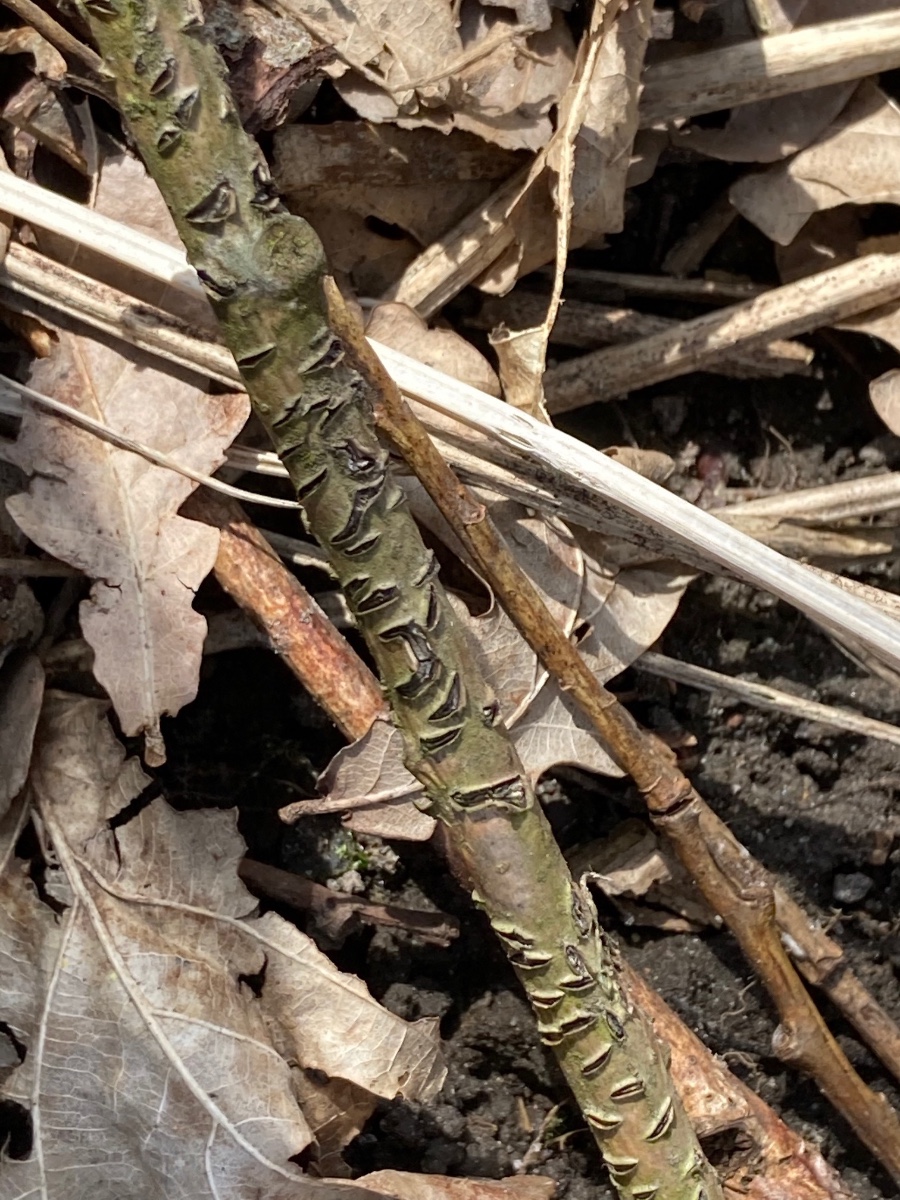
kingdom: Fungi
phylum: Ascomycota
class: Leotiomycetes
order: Rhytismatales
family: Rhytismataceae
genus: Colpoma
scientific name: Colpoma quercinum
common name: ege-sprækkeskive
